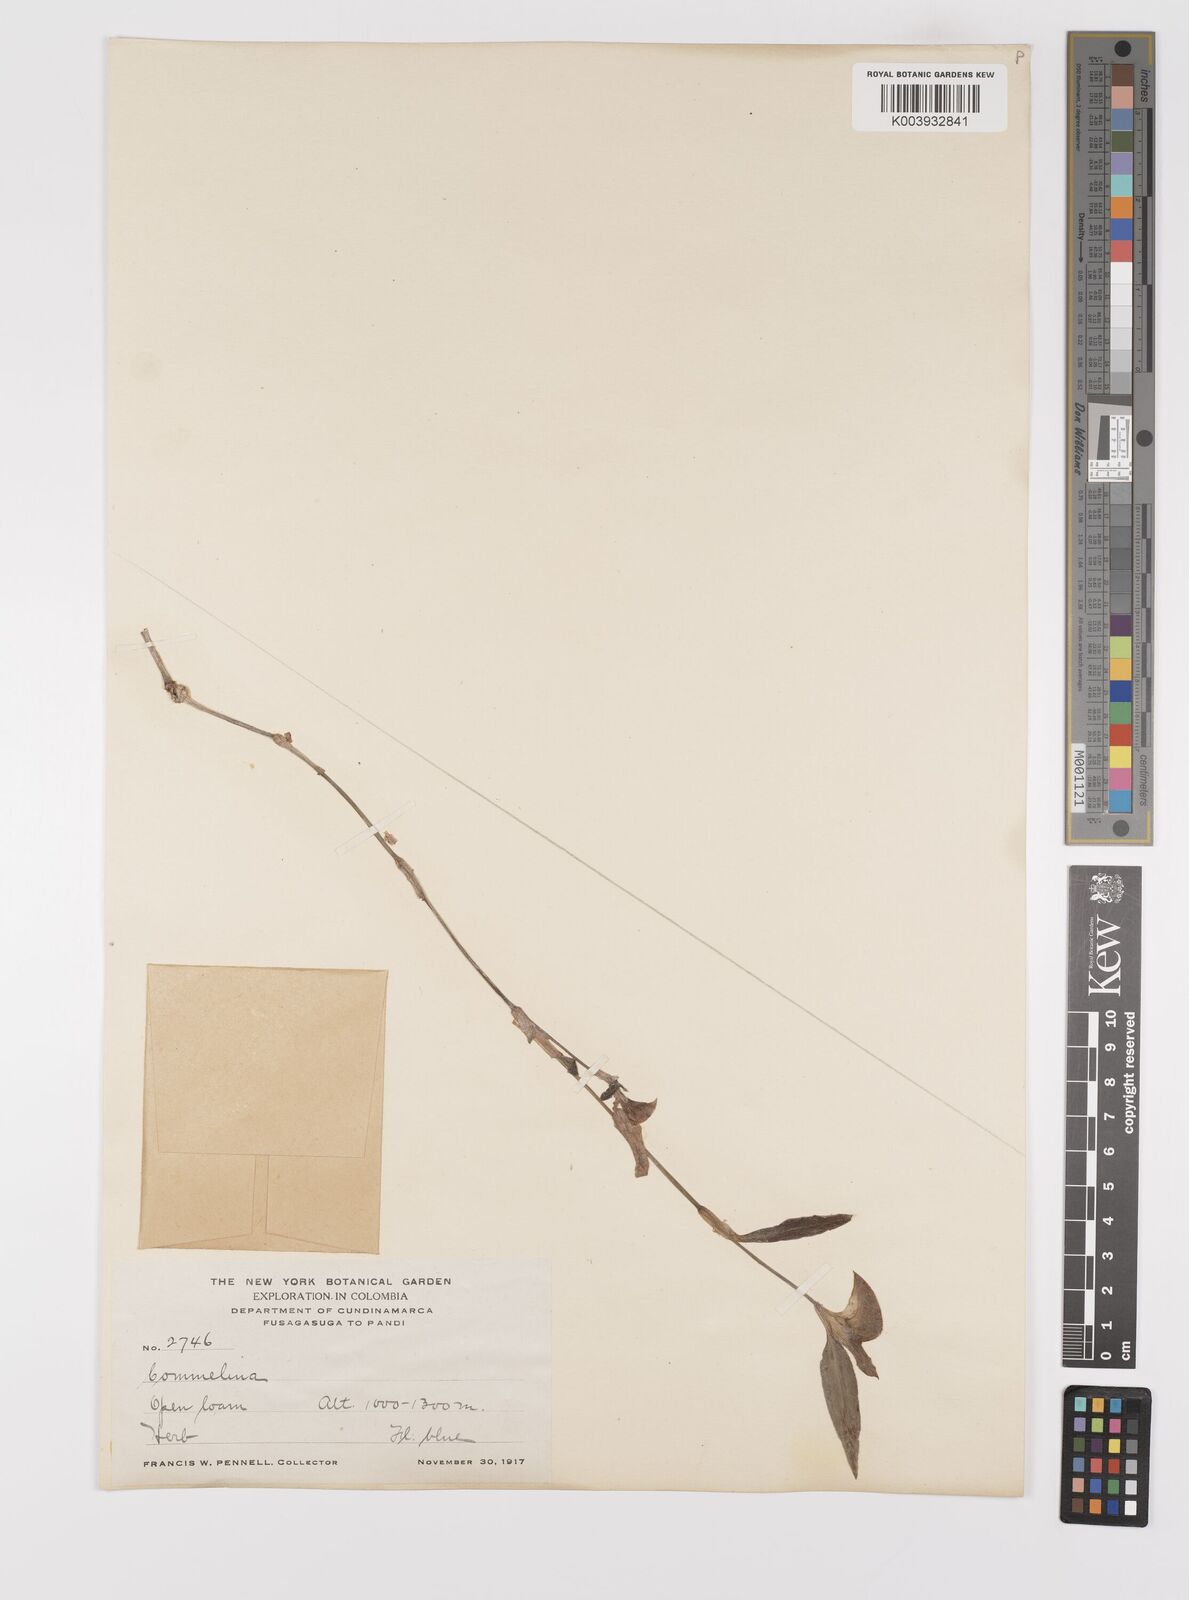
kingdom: Plantae
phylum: Tracheophyta
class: Liliopsida
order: Commelinales
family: Commelinaceae
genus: Commelina
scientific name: Commelina
